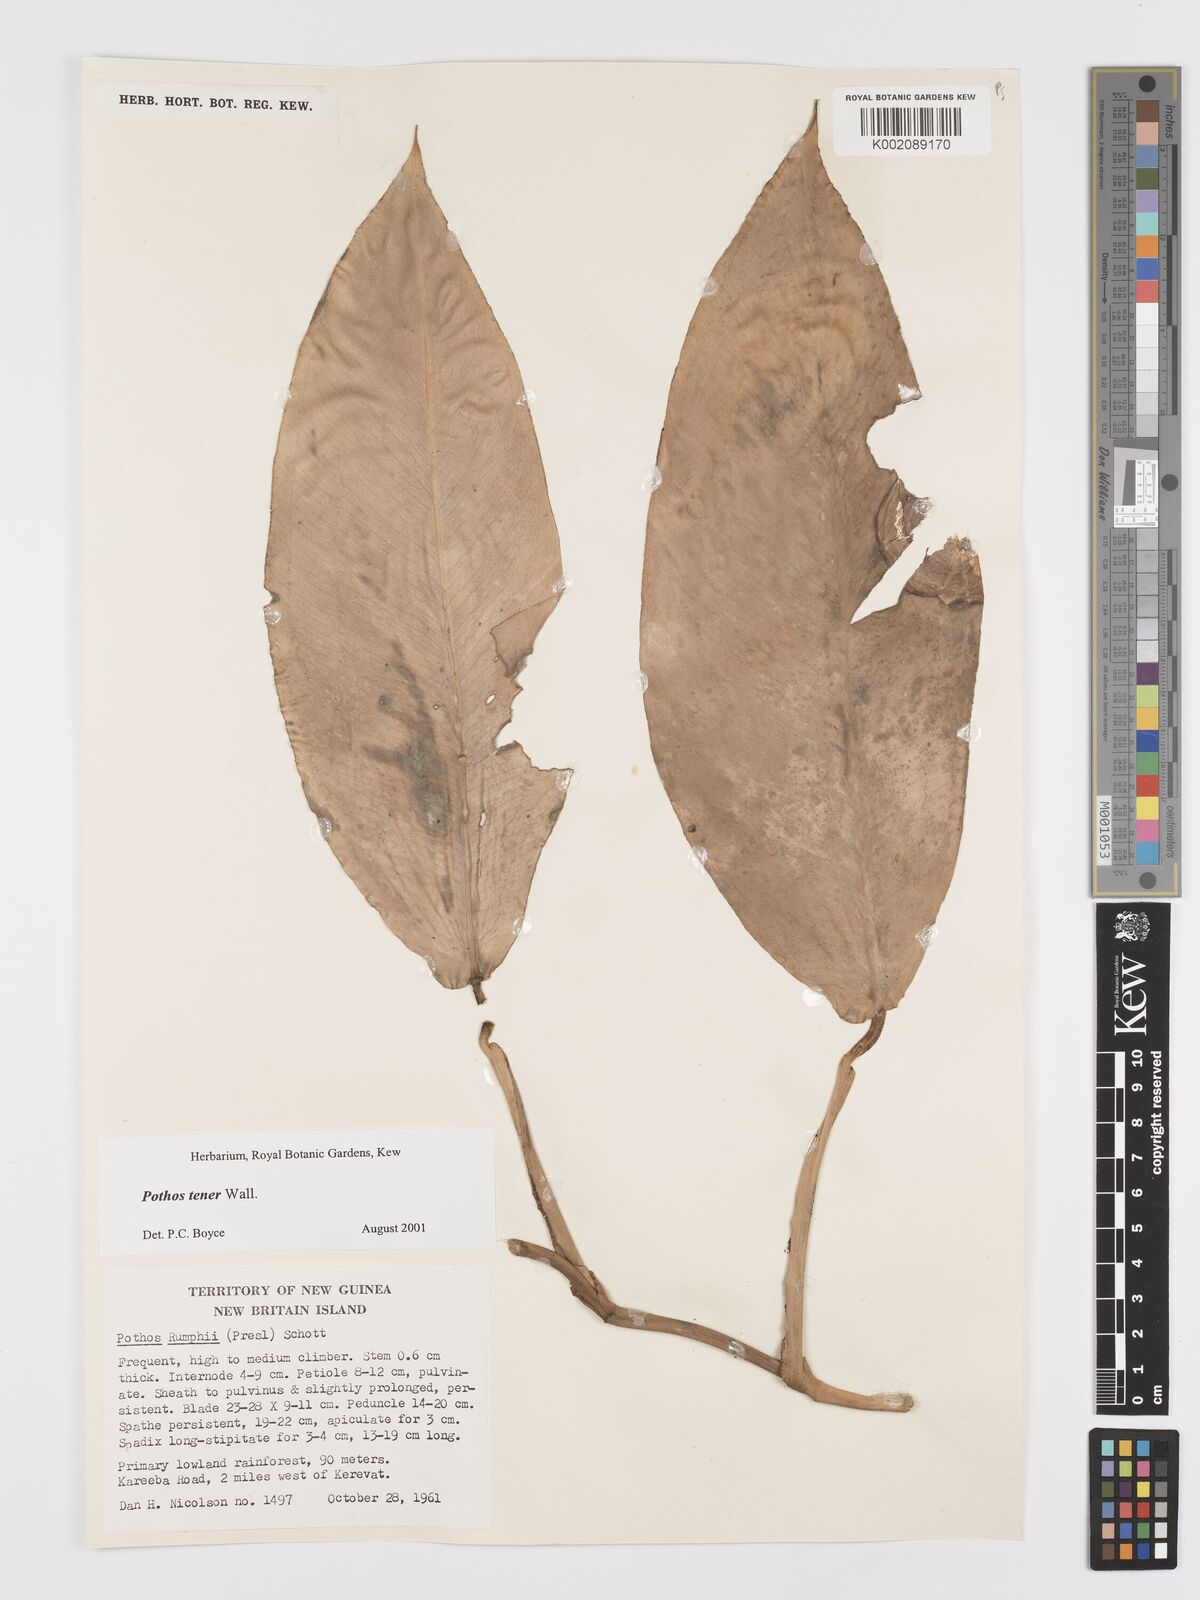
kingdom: Plantae
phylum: Tracheophyta
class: Liliopsida
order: Alismatales
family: Araceae
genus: Pothos
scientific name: Pothos tener
